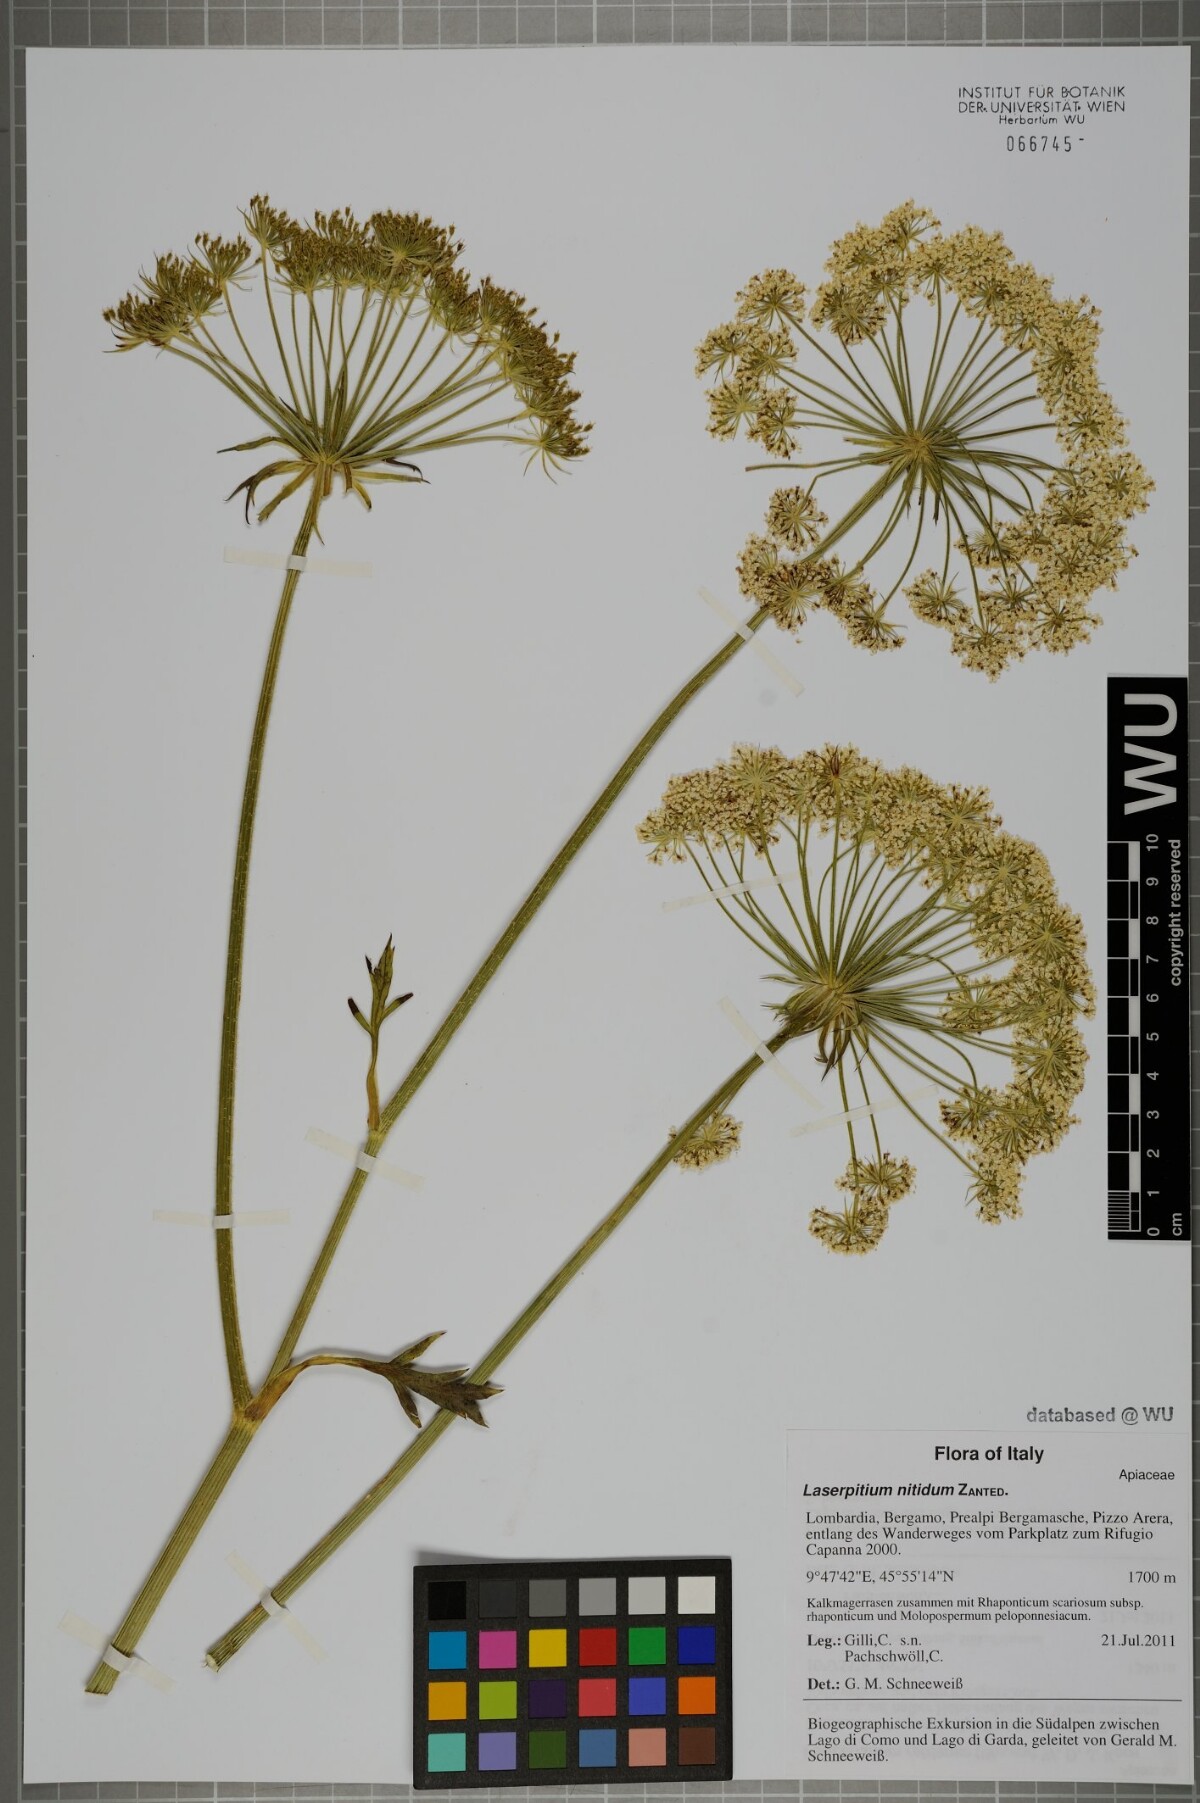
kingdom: Plantae
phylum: Tracheophyta
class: Magnoliopsida
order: Apiales
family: Apiaceae
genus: Laserpitium
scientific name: Laserpitium nitidum
